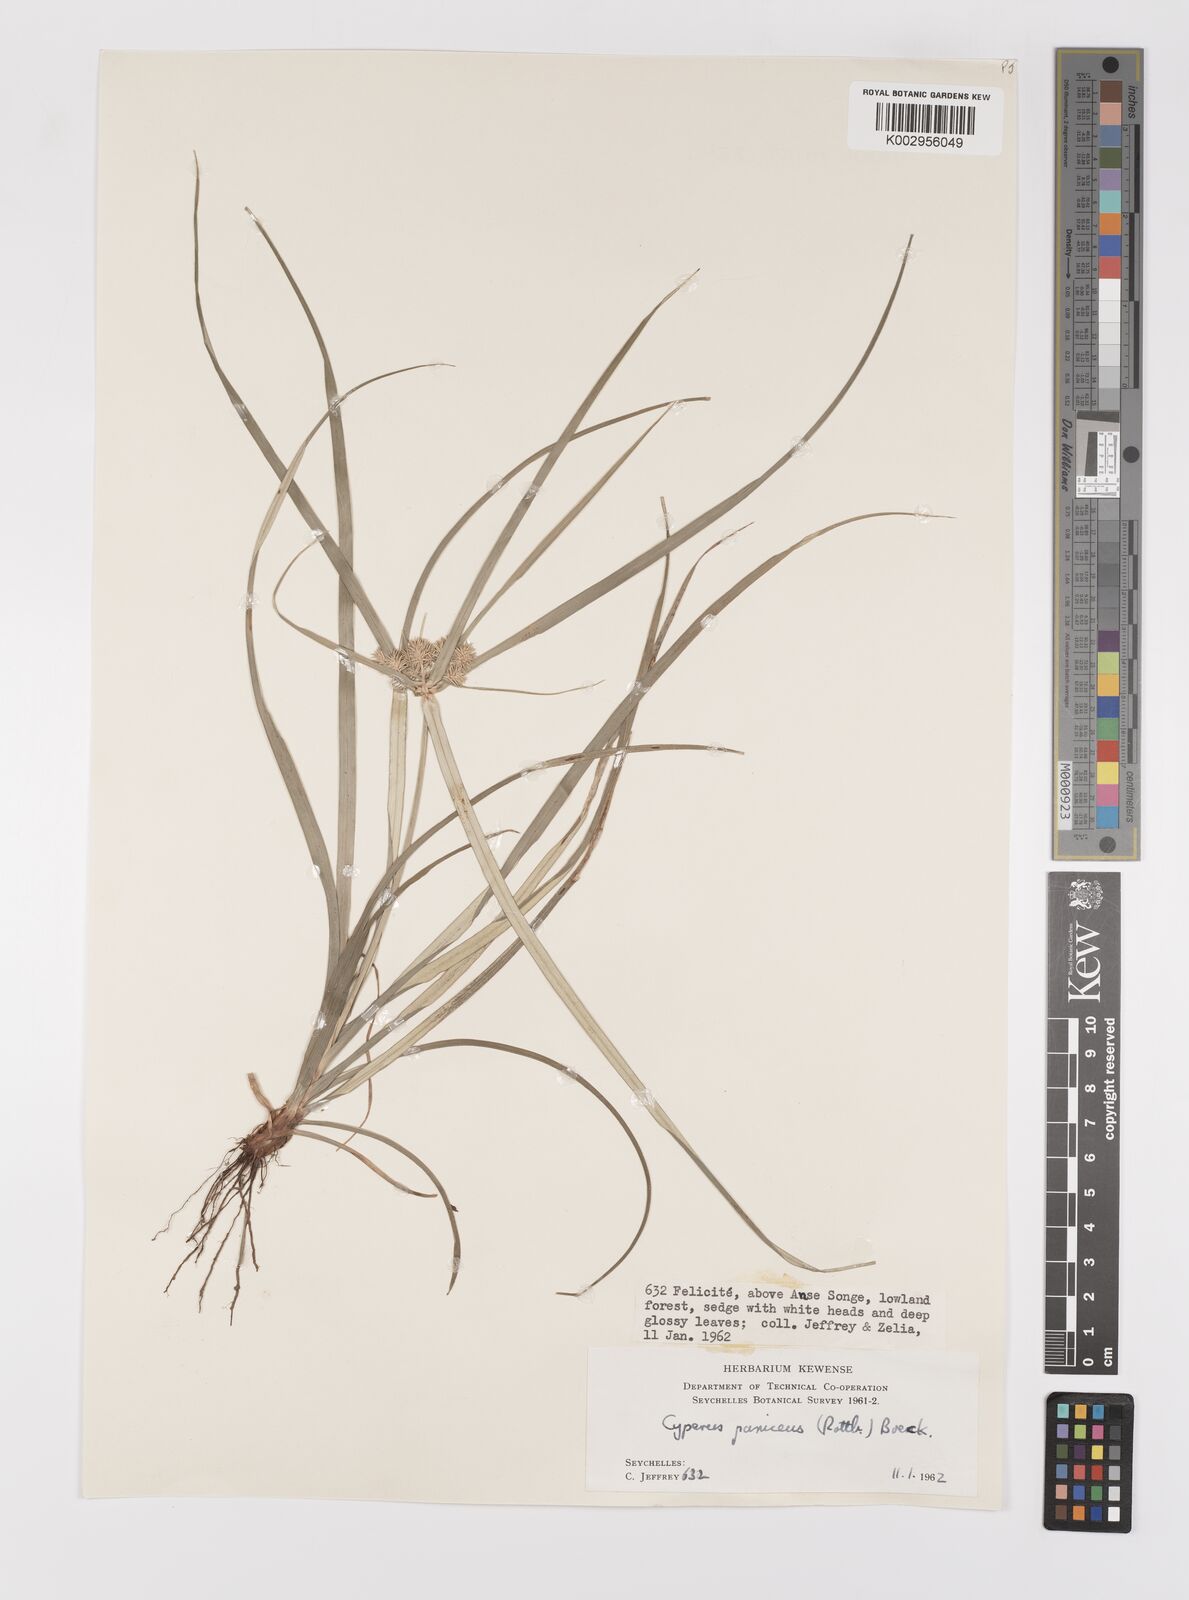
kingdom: Plantae
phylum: Tracheophyta
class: Liliopsida
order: Poales
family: Cyperaceae
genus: Cyperus
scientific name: Cyperus paniceus
